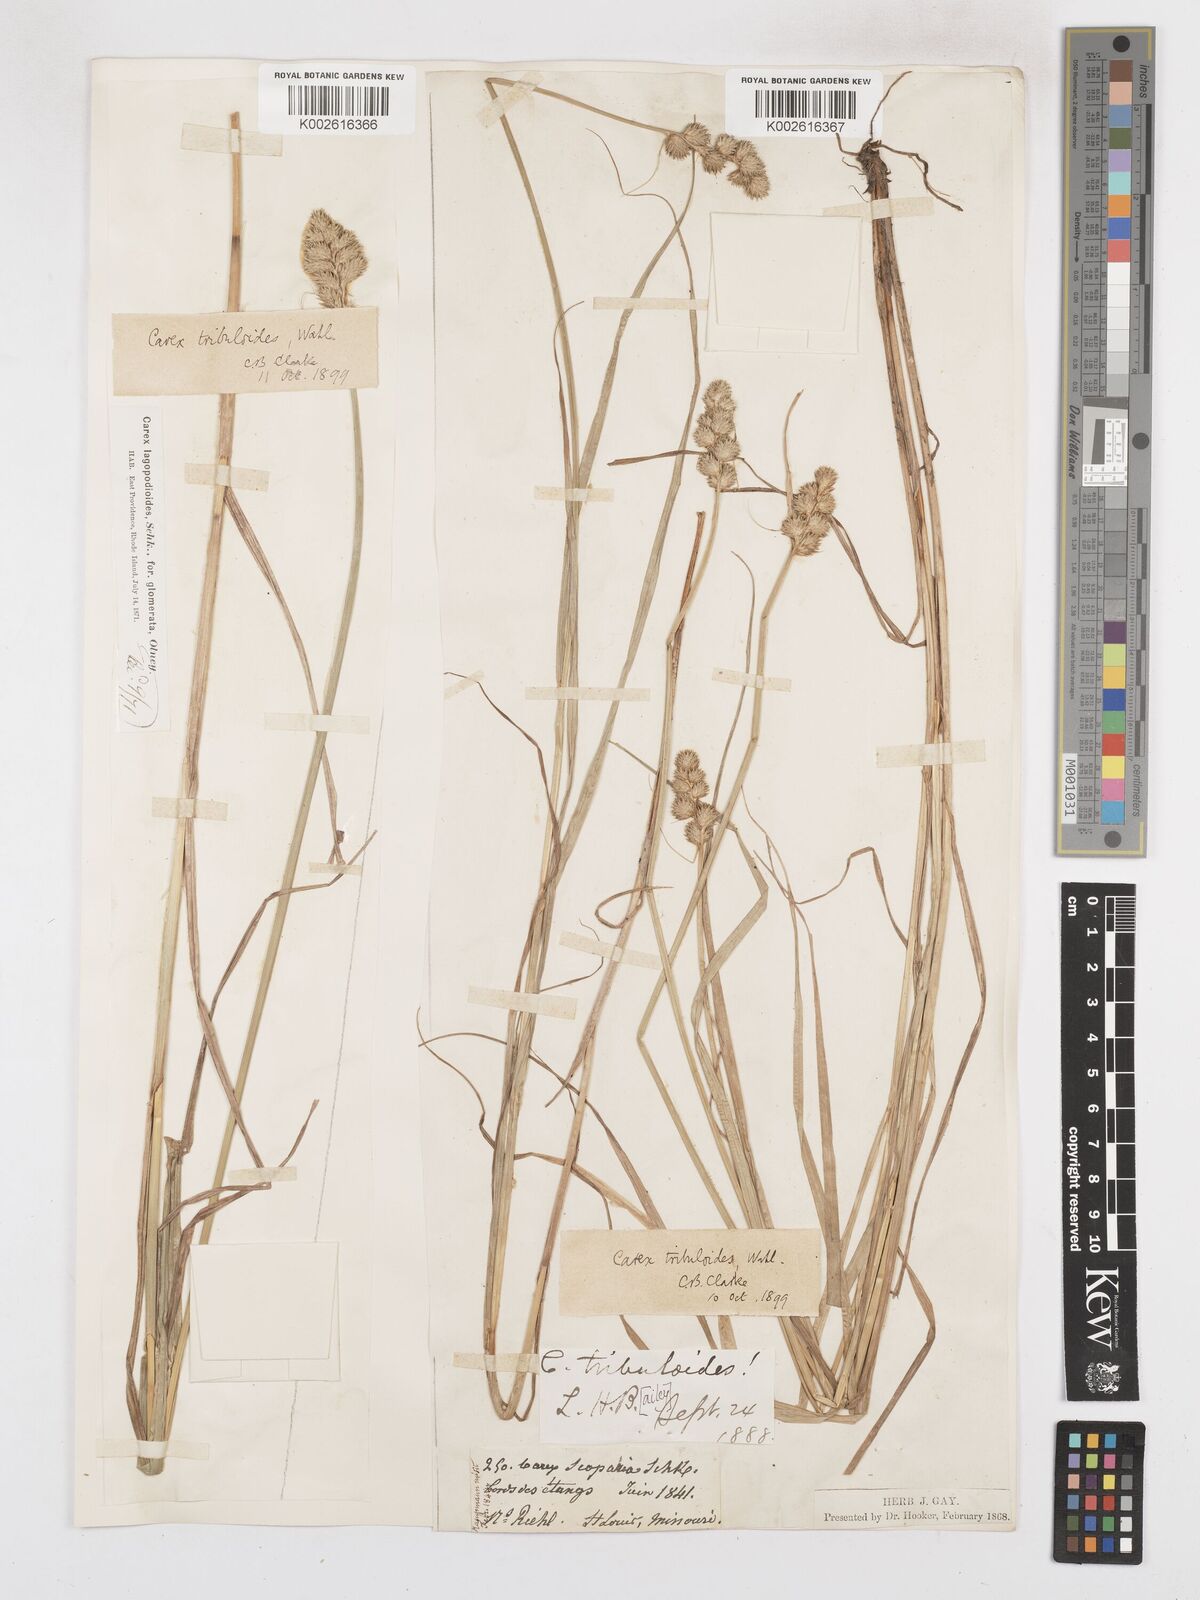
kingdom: Plantae
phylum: Tracheophyta
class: Liliopsida
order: Poales
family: Cyperaceae
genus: Carex
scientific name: Carex tribuloides
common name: Blunt broom sedge
